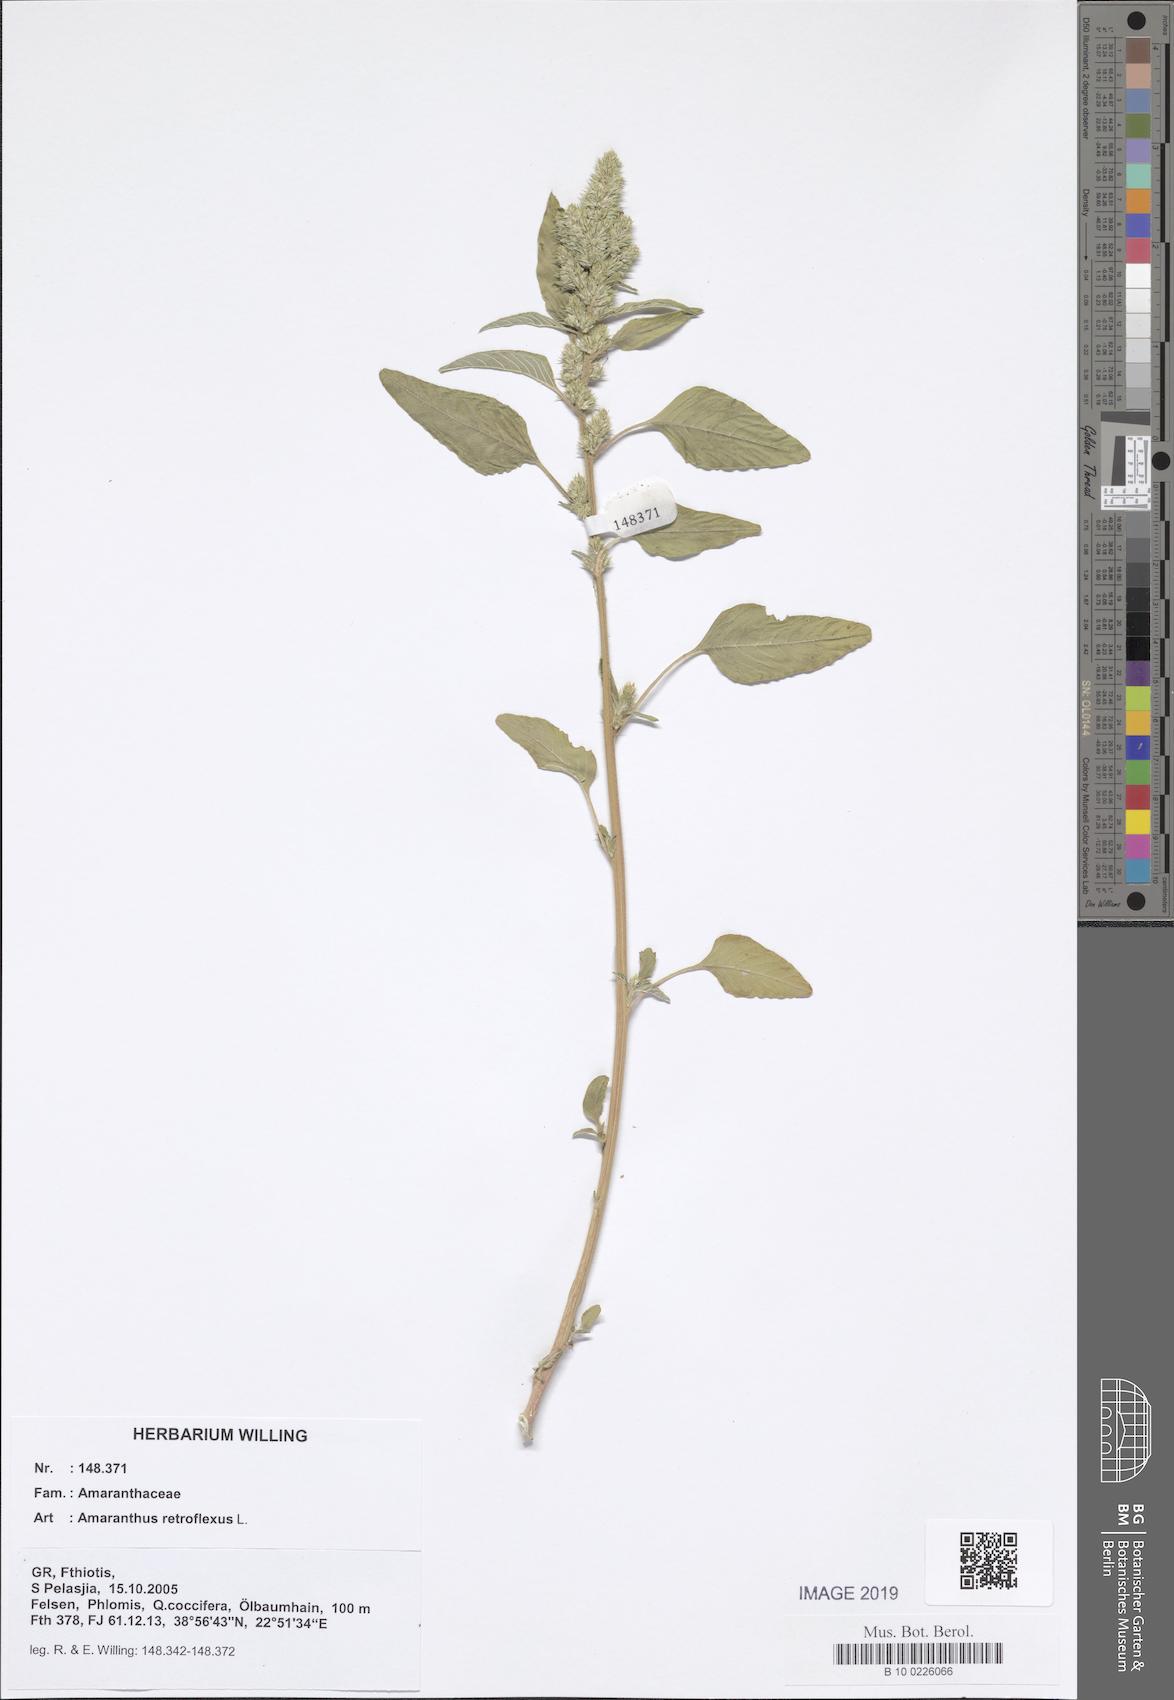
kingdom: Plantae
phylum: Tracheophyta
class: Magnoliopsida
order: Caryophyllales
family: Amaranthaceae
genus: Amaranthus
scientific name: Amaranthus retroflexus
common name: Redroot amaranth
